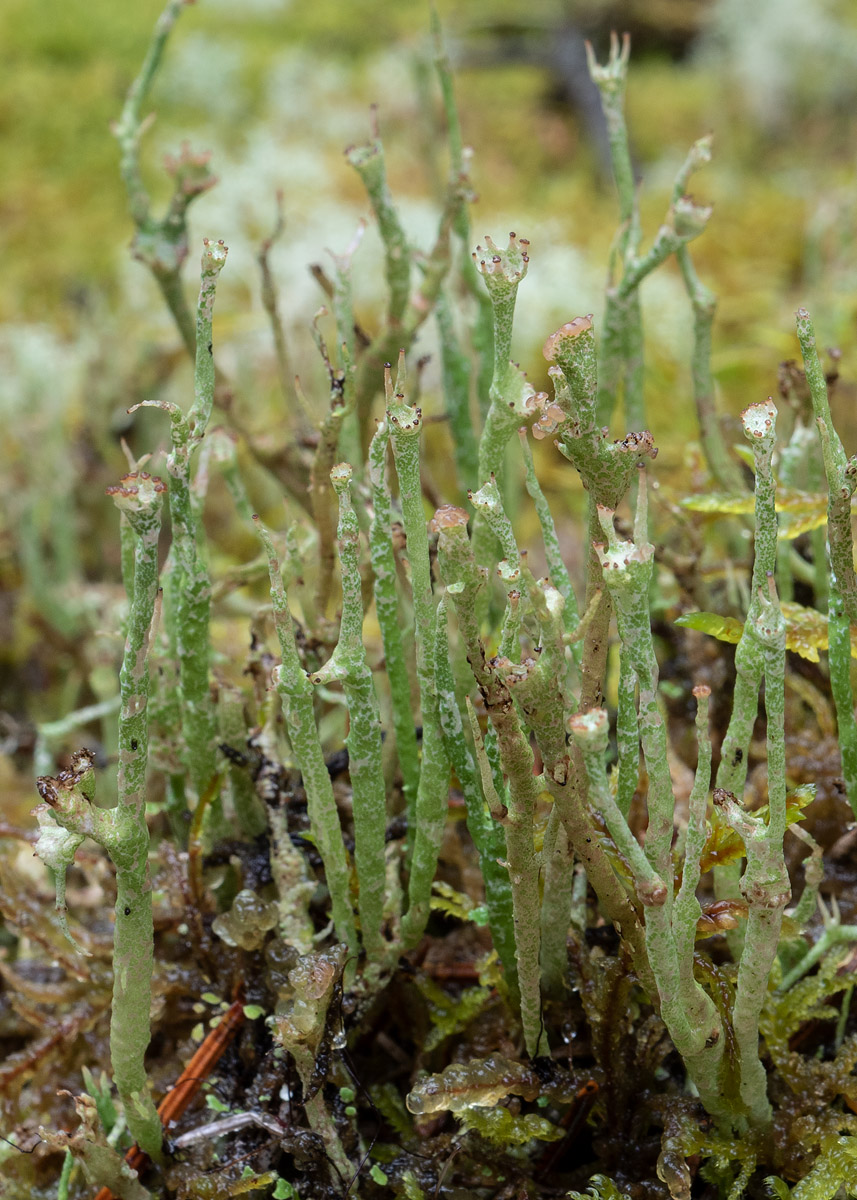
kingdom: Fungi
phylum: Ascomycota
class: Lecanoromycetes
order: Lecanorales
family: Cladoniaceae
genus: Cladonia
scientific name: Cladonia gracilis
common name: slank bægerlav
